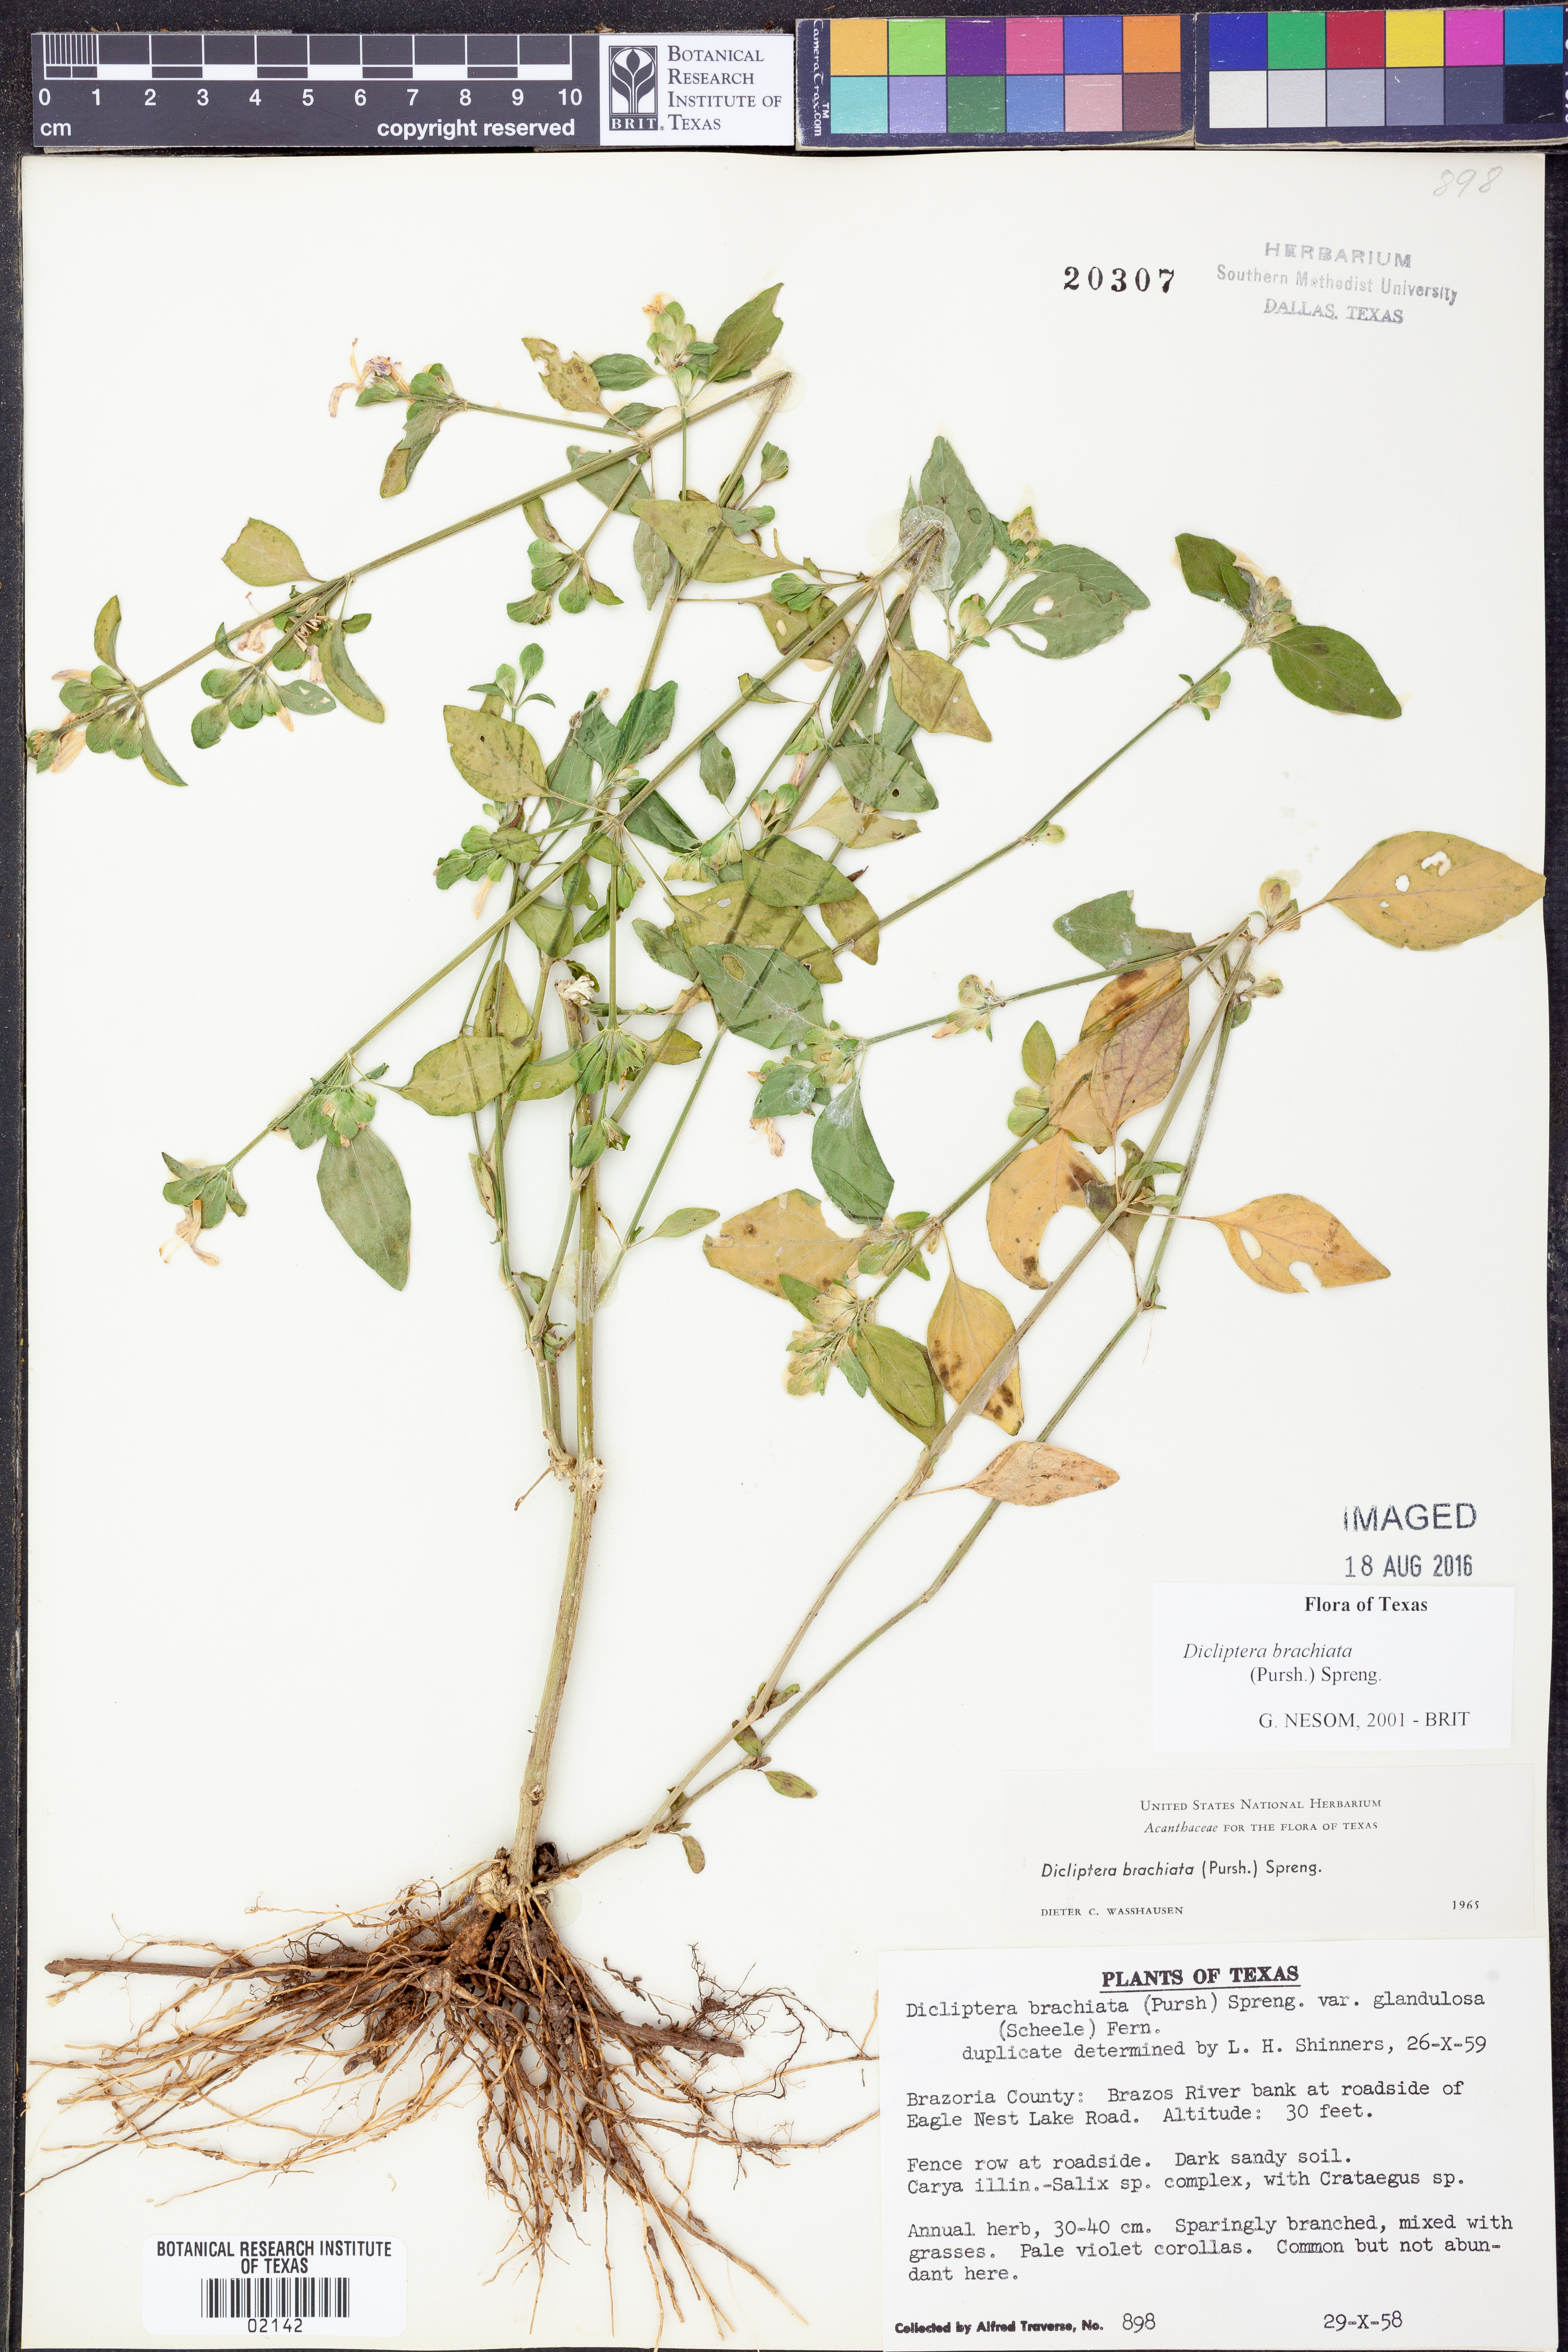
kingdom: Plantae
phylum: Tracheophyta
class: Magnoliopsida
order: Lamiales
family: Acanthaceae
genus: Dicliptera
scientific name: Dicliptera brachiata
